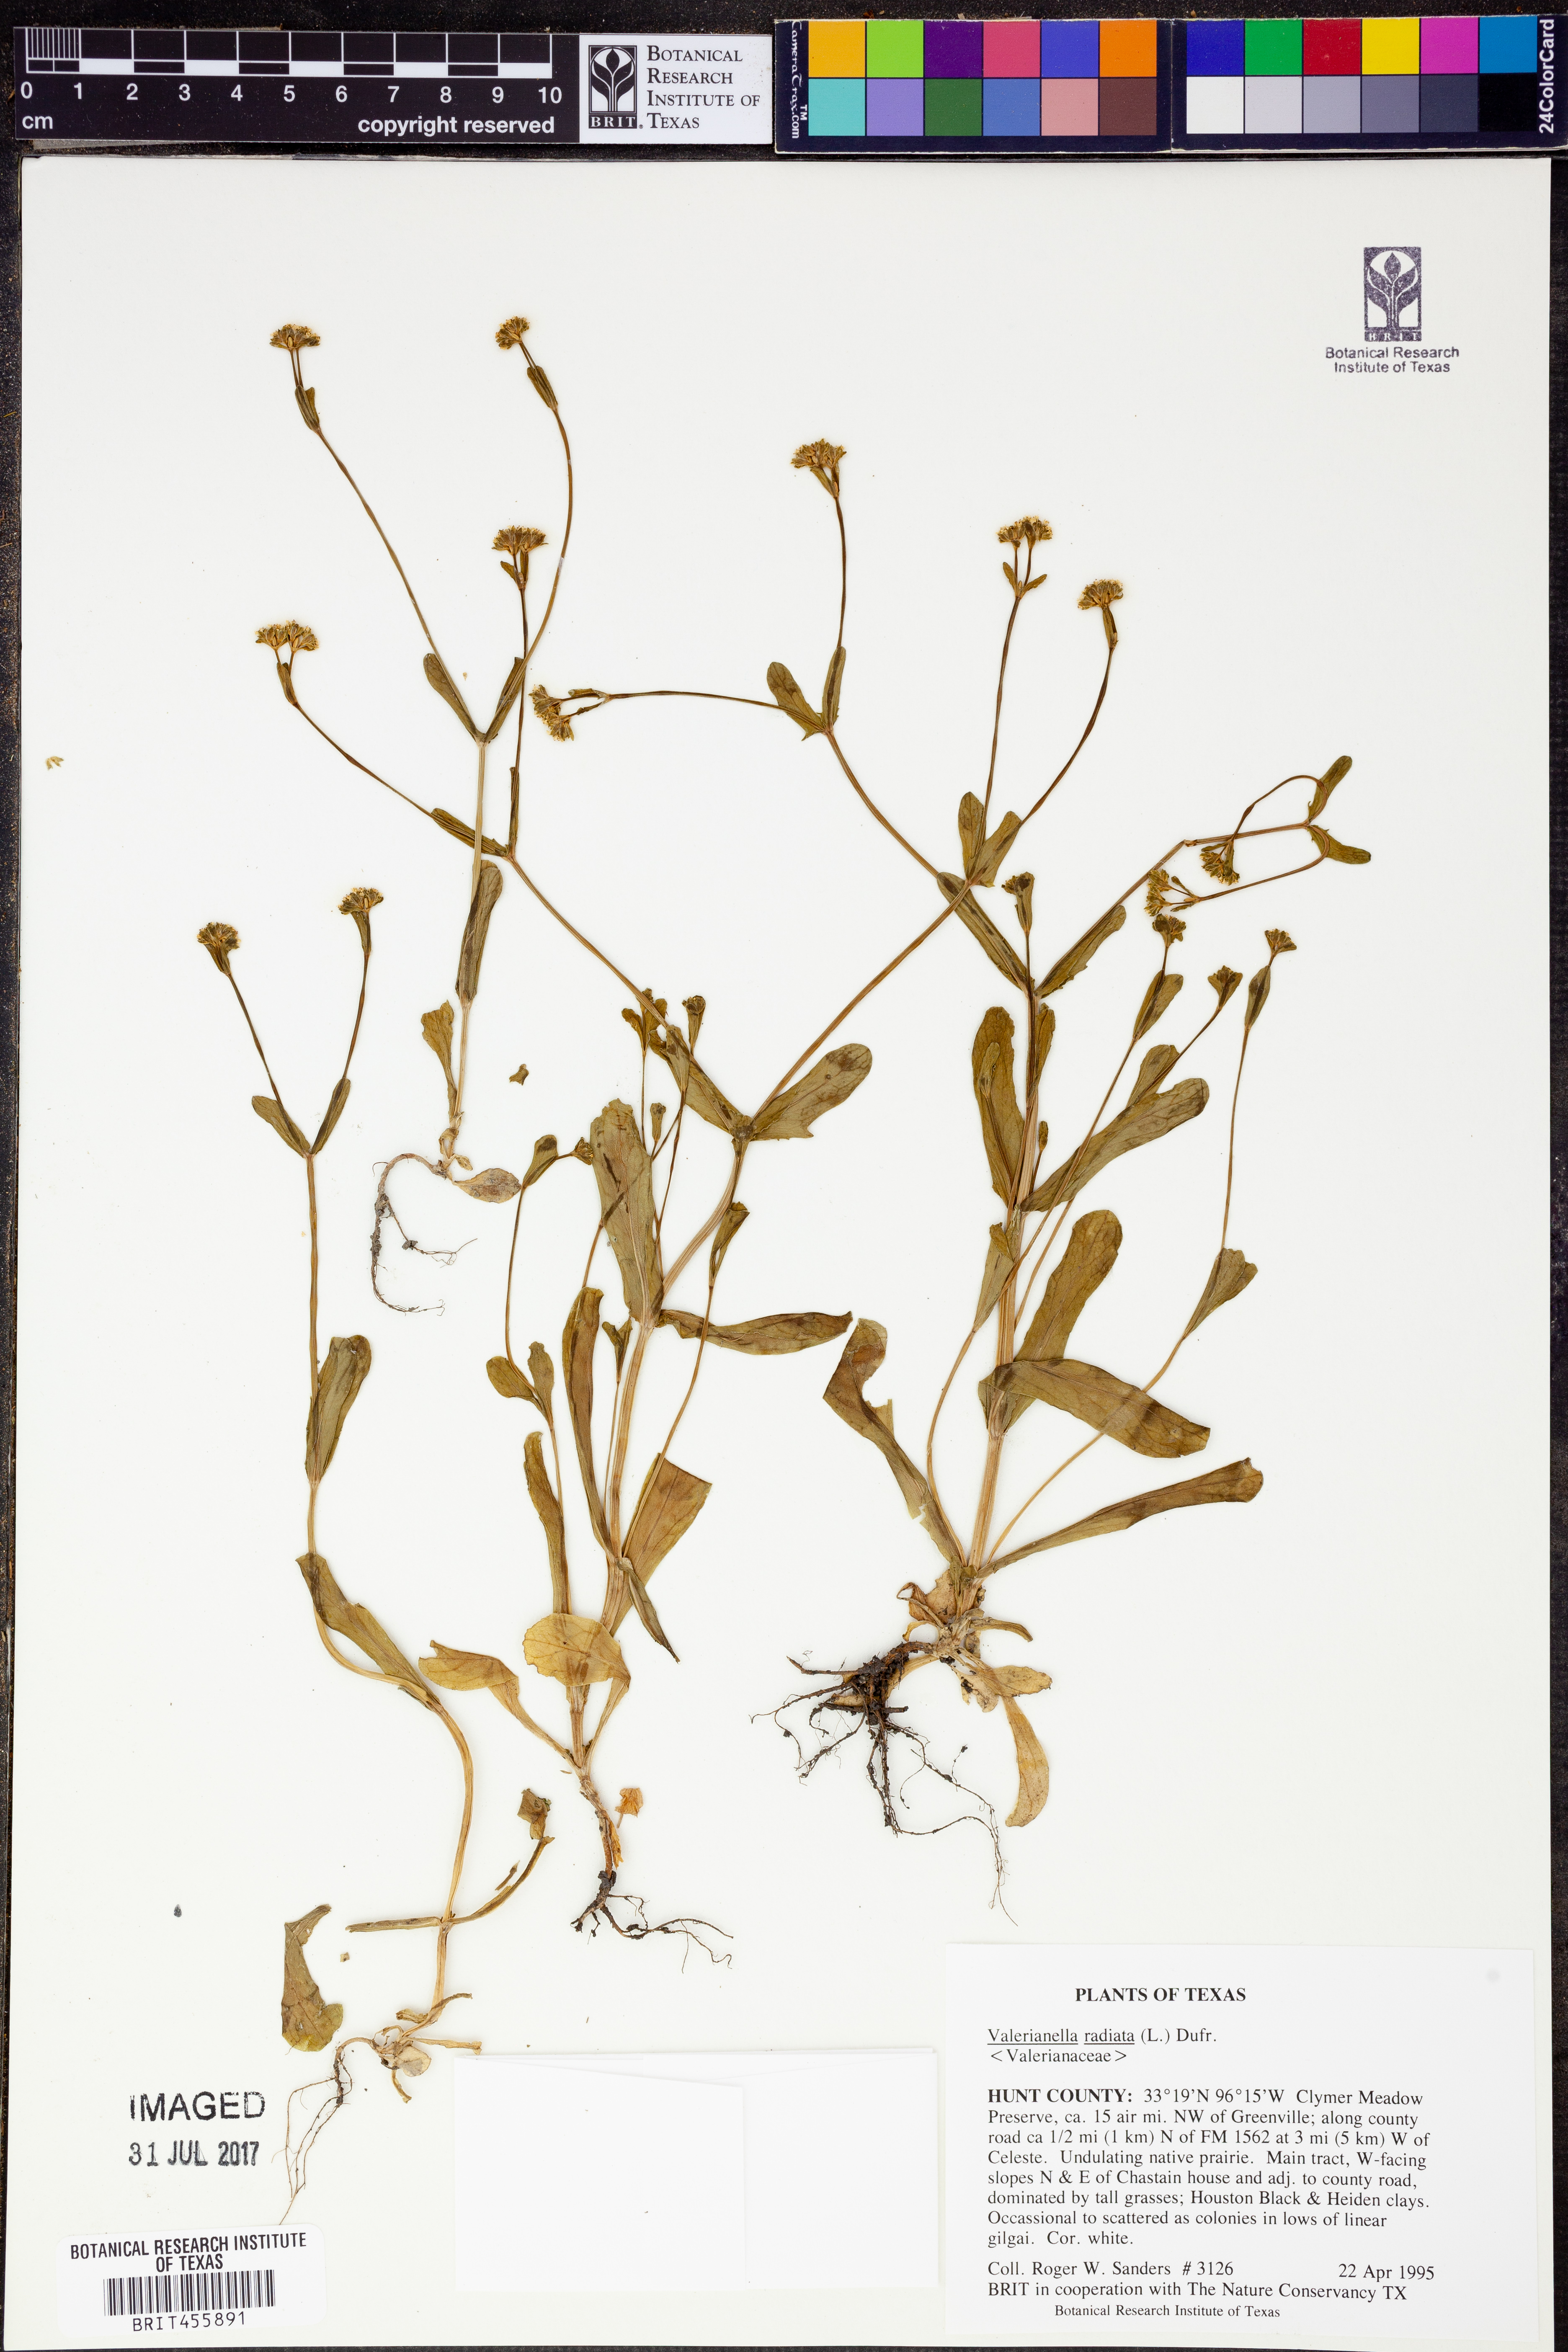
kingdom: Plantae
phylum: Tracheophyta
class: Magnoliopsida
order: Dipsacales
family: Caprifoliaceae
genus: Valerianella
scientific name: Valerianella radiata
